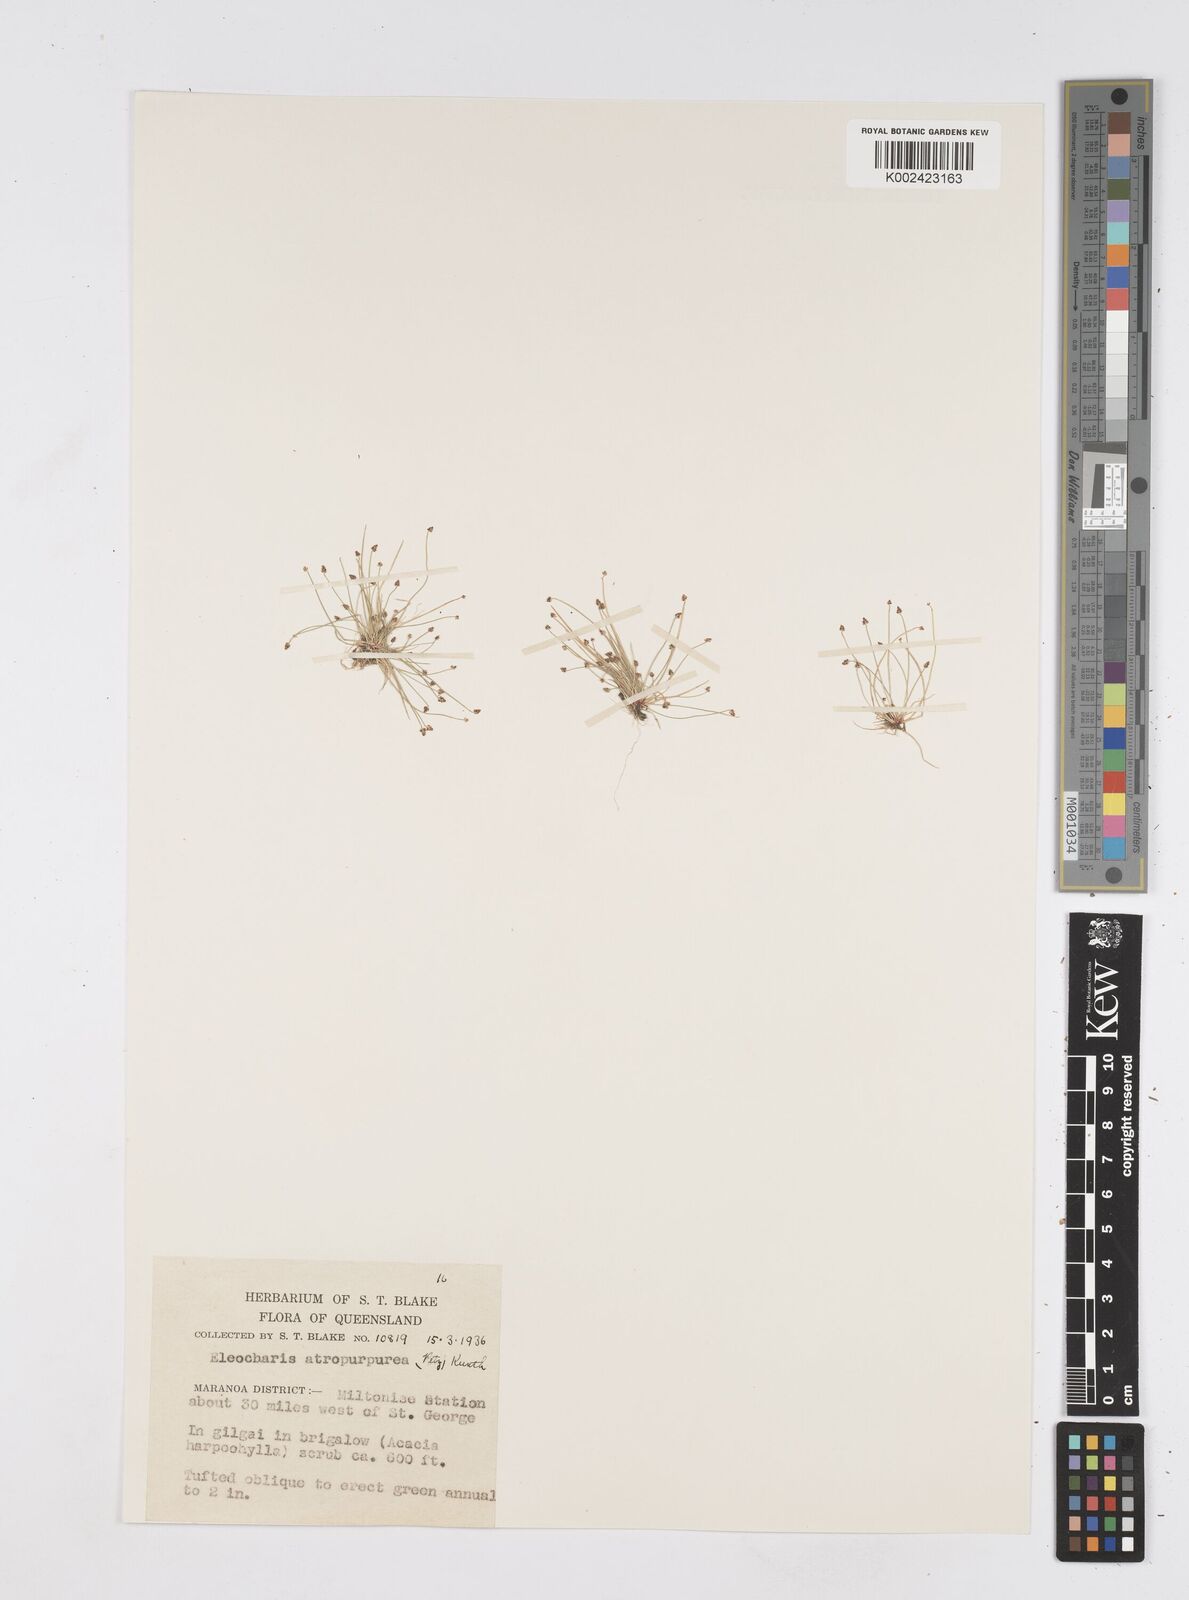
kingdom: Plantae
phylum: Tracheophyta
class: Liliopsida
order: Poales
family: Cyperaceae
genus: Eleocharis
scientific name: Eleocharis atropurpurea
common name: Purple spikerush
